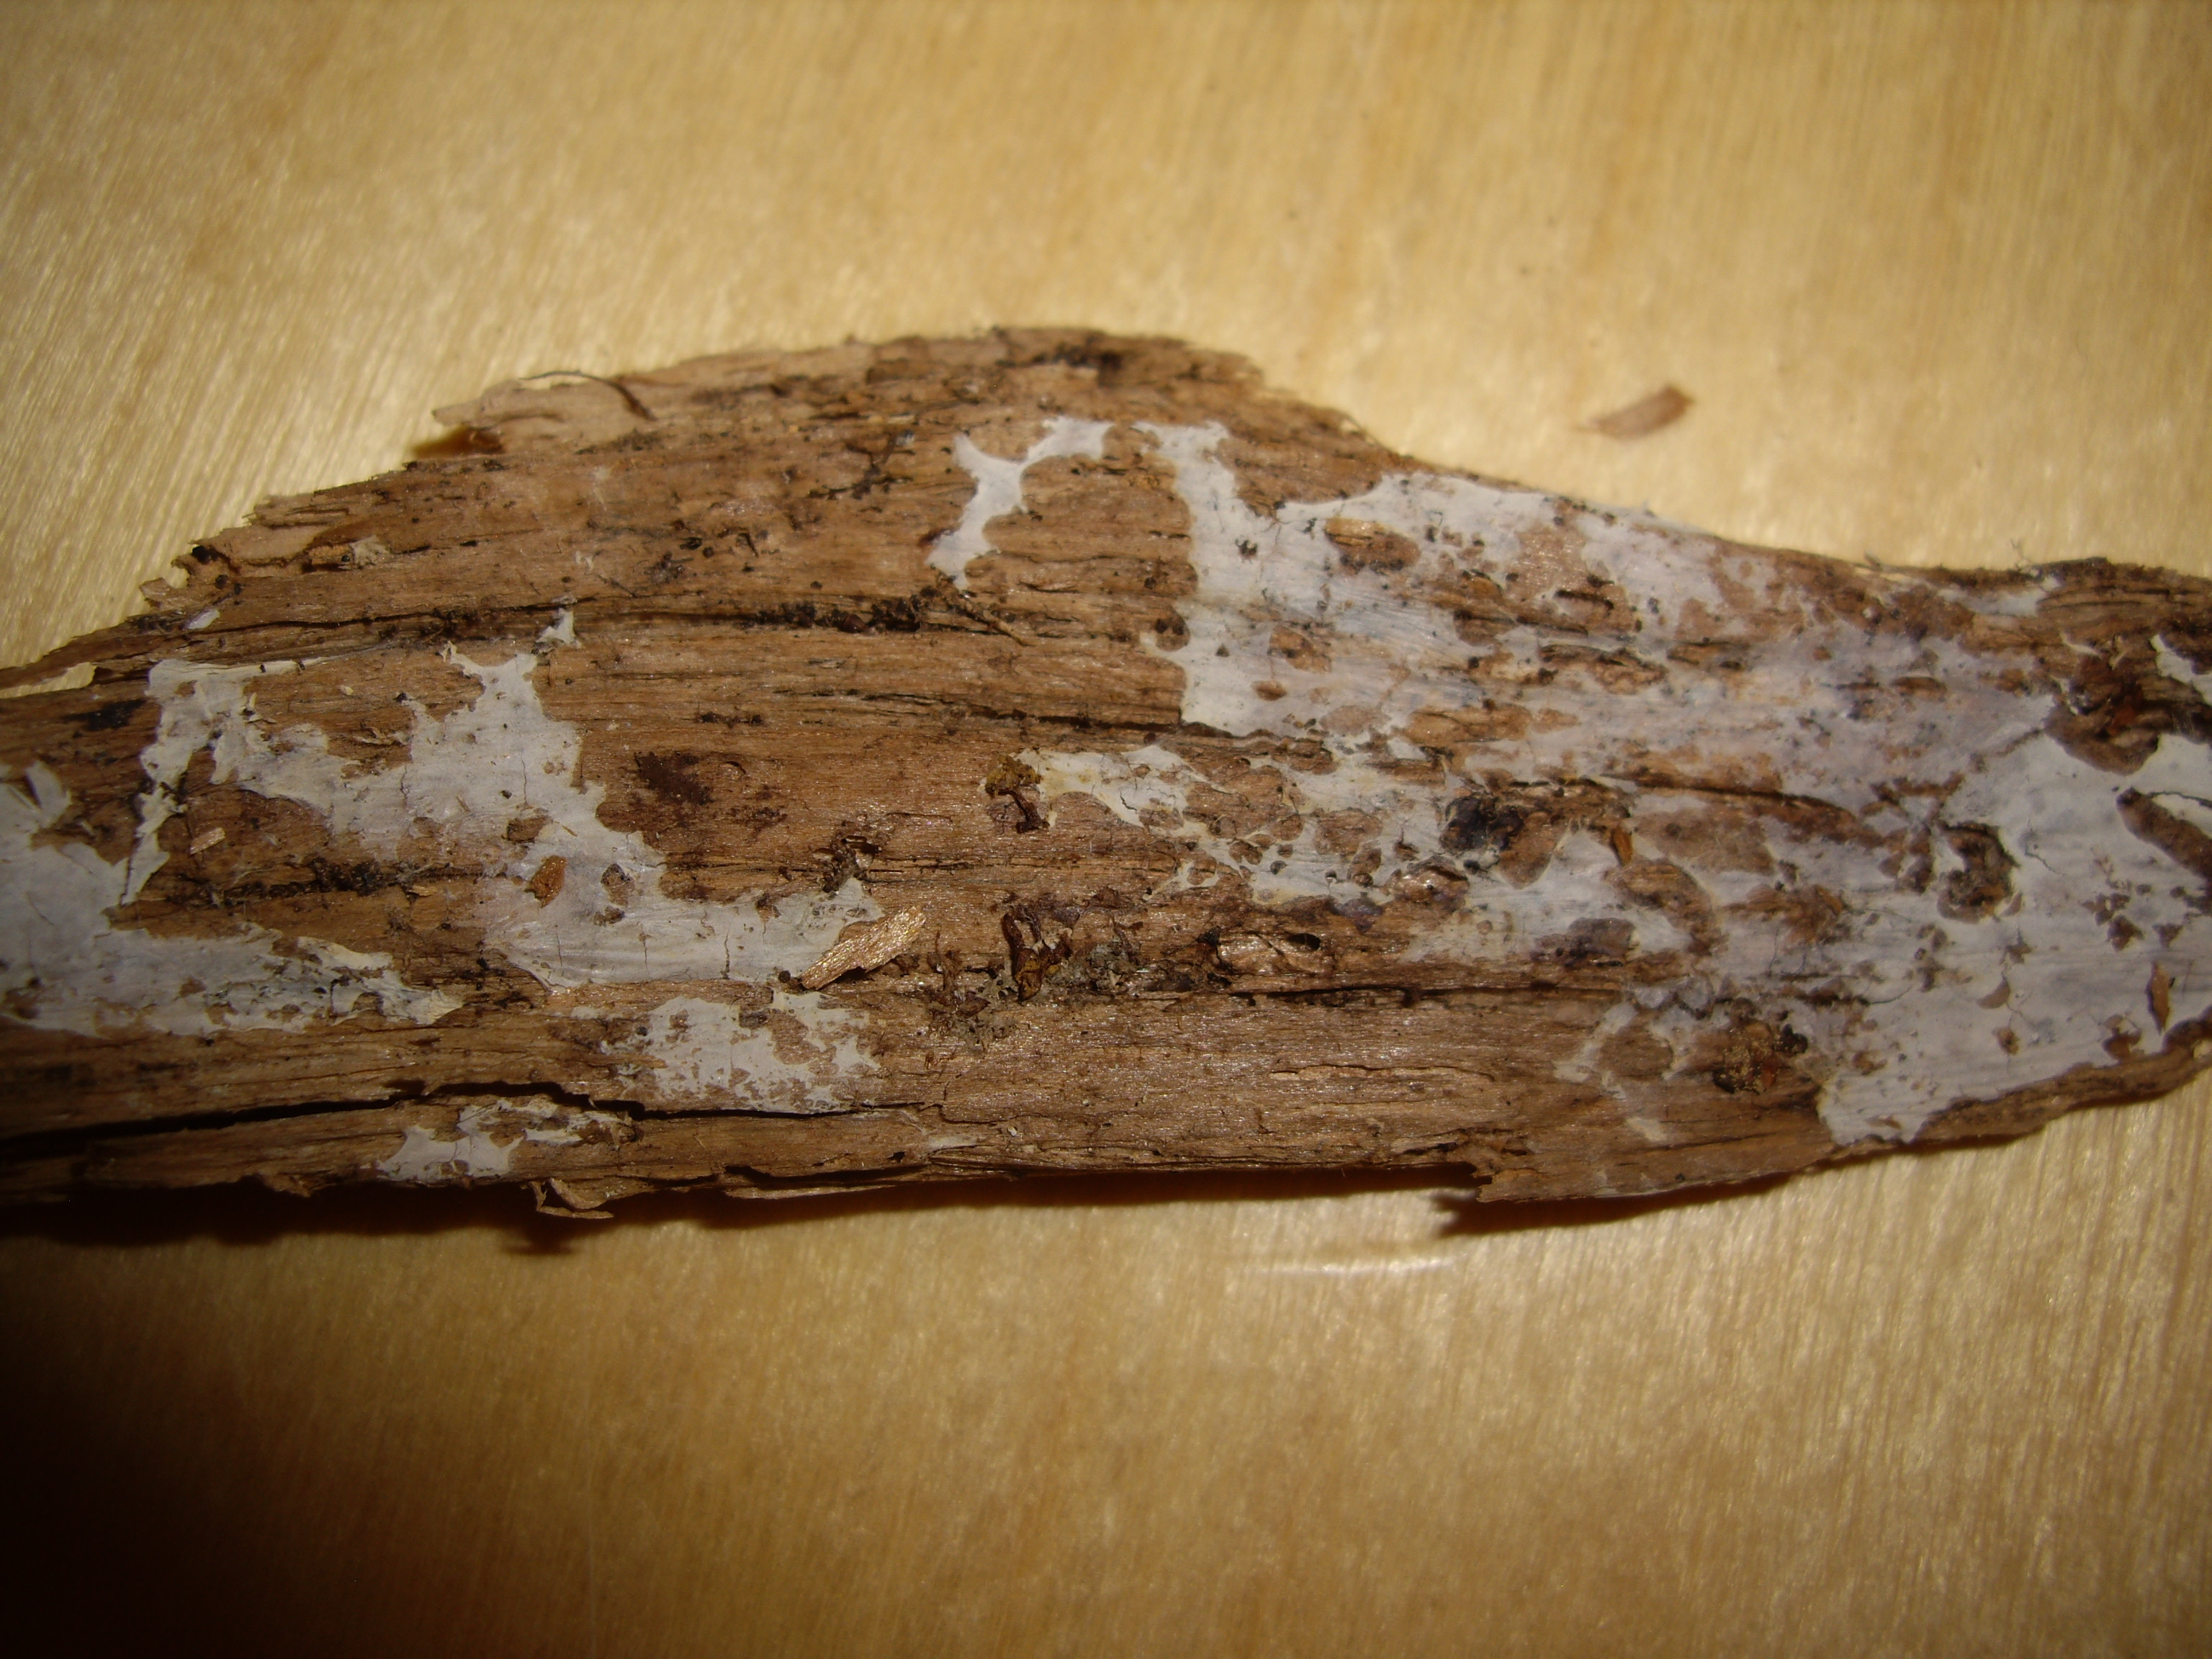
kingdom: Fungi
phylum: Basidiomycota
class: Agaricomycetes
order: Atheliales
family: Atheliaceae
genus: Leptosporomyces
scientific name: Leptosporomyces septentrionalis
